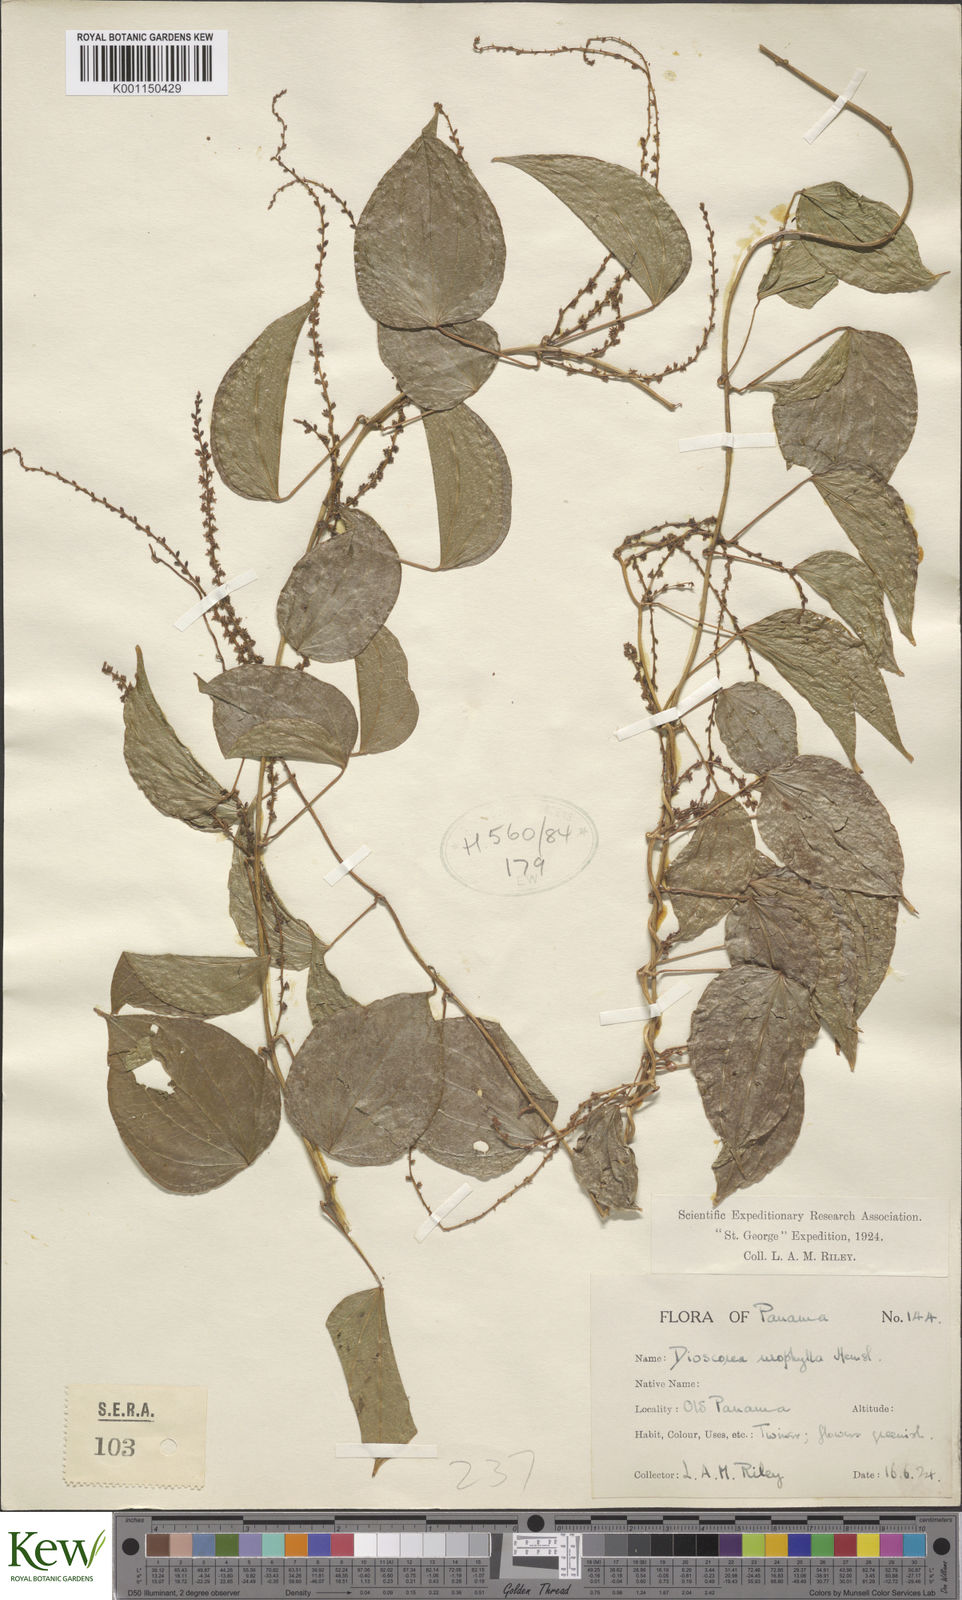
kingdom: Plantae
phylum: Tracheophyta
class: Liliopsida
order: Dioscoreales
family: Dioscoreaceae
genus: Dioscorea
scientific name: Dioscorea urophylla
